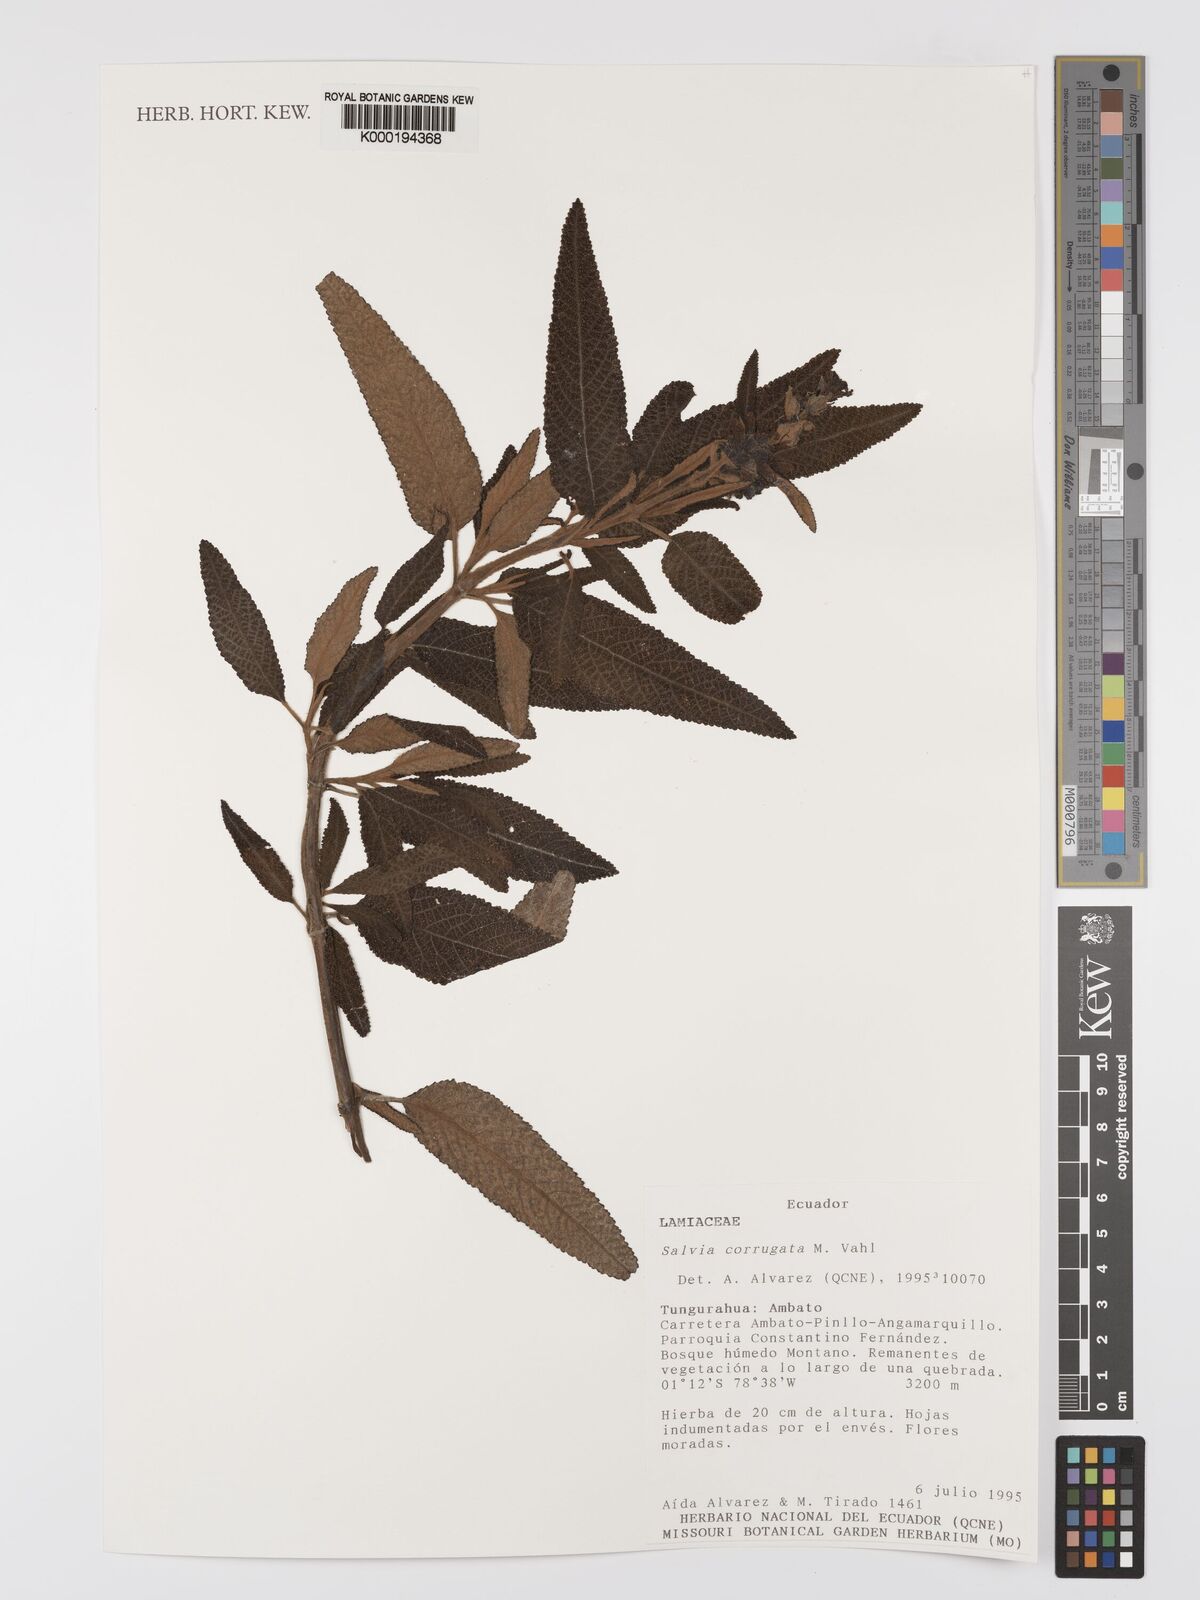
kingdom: Plantae
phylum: Tracheophyta
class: Magnoliopsida
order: Lamiales
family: Lamiaceae
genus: Salvia
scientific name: Salvia corrugata
